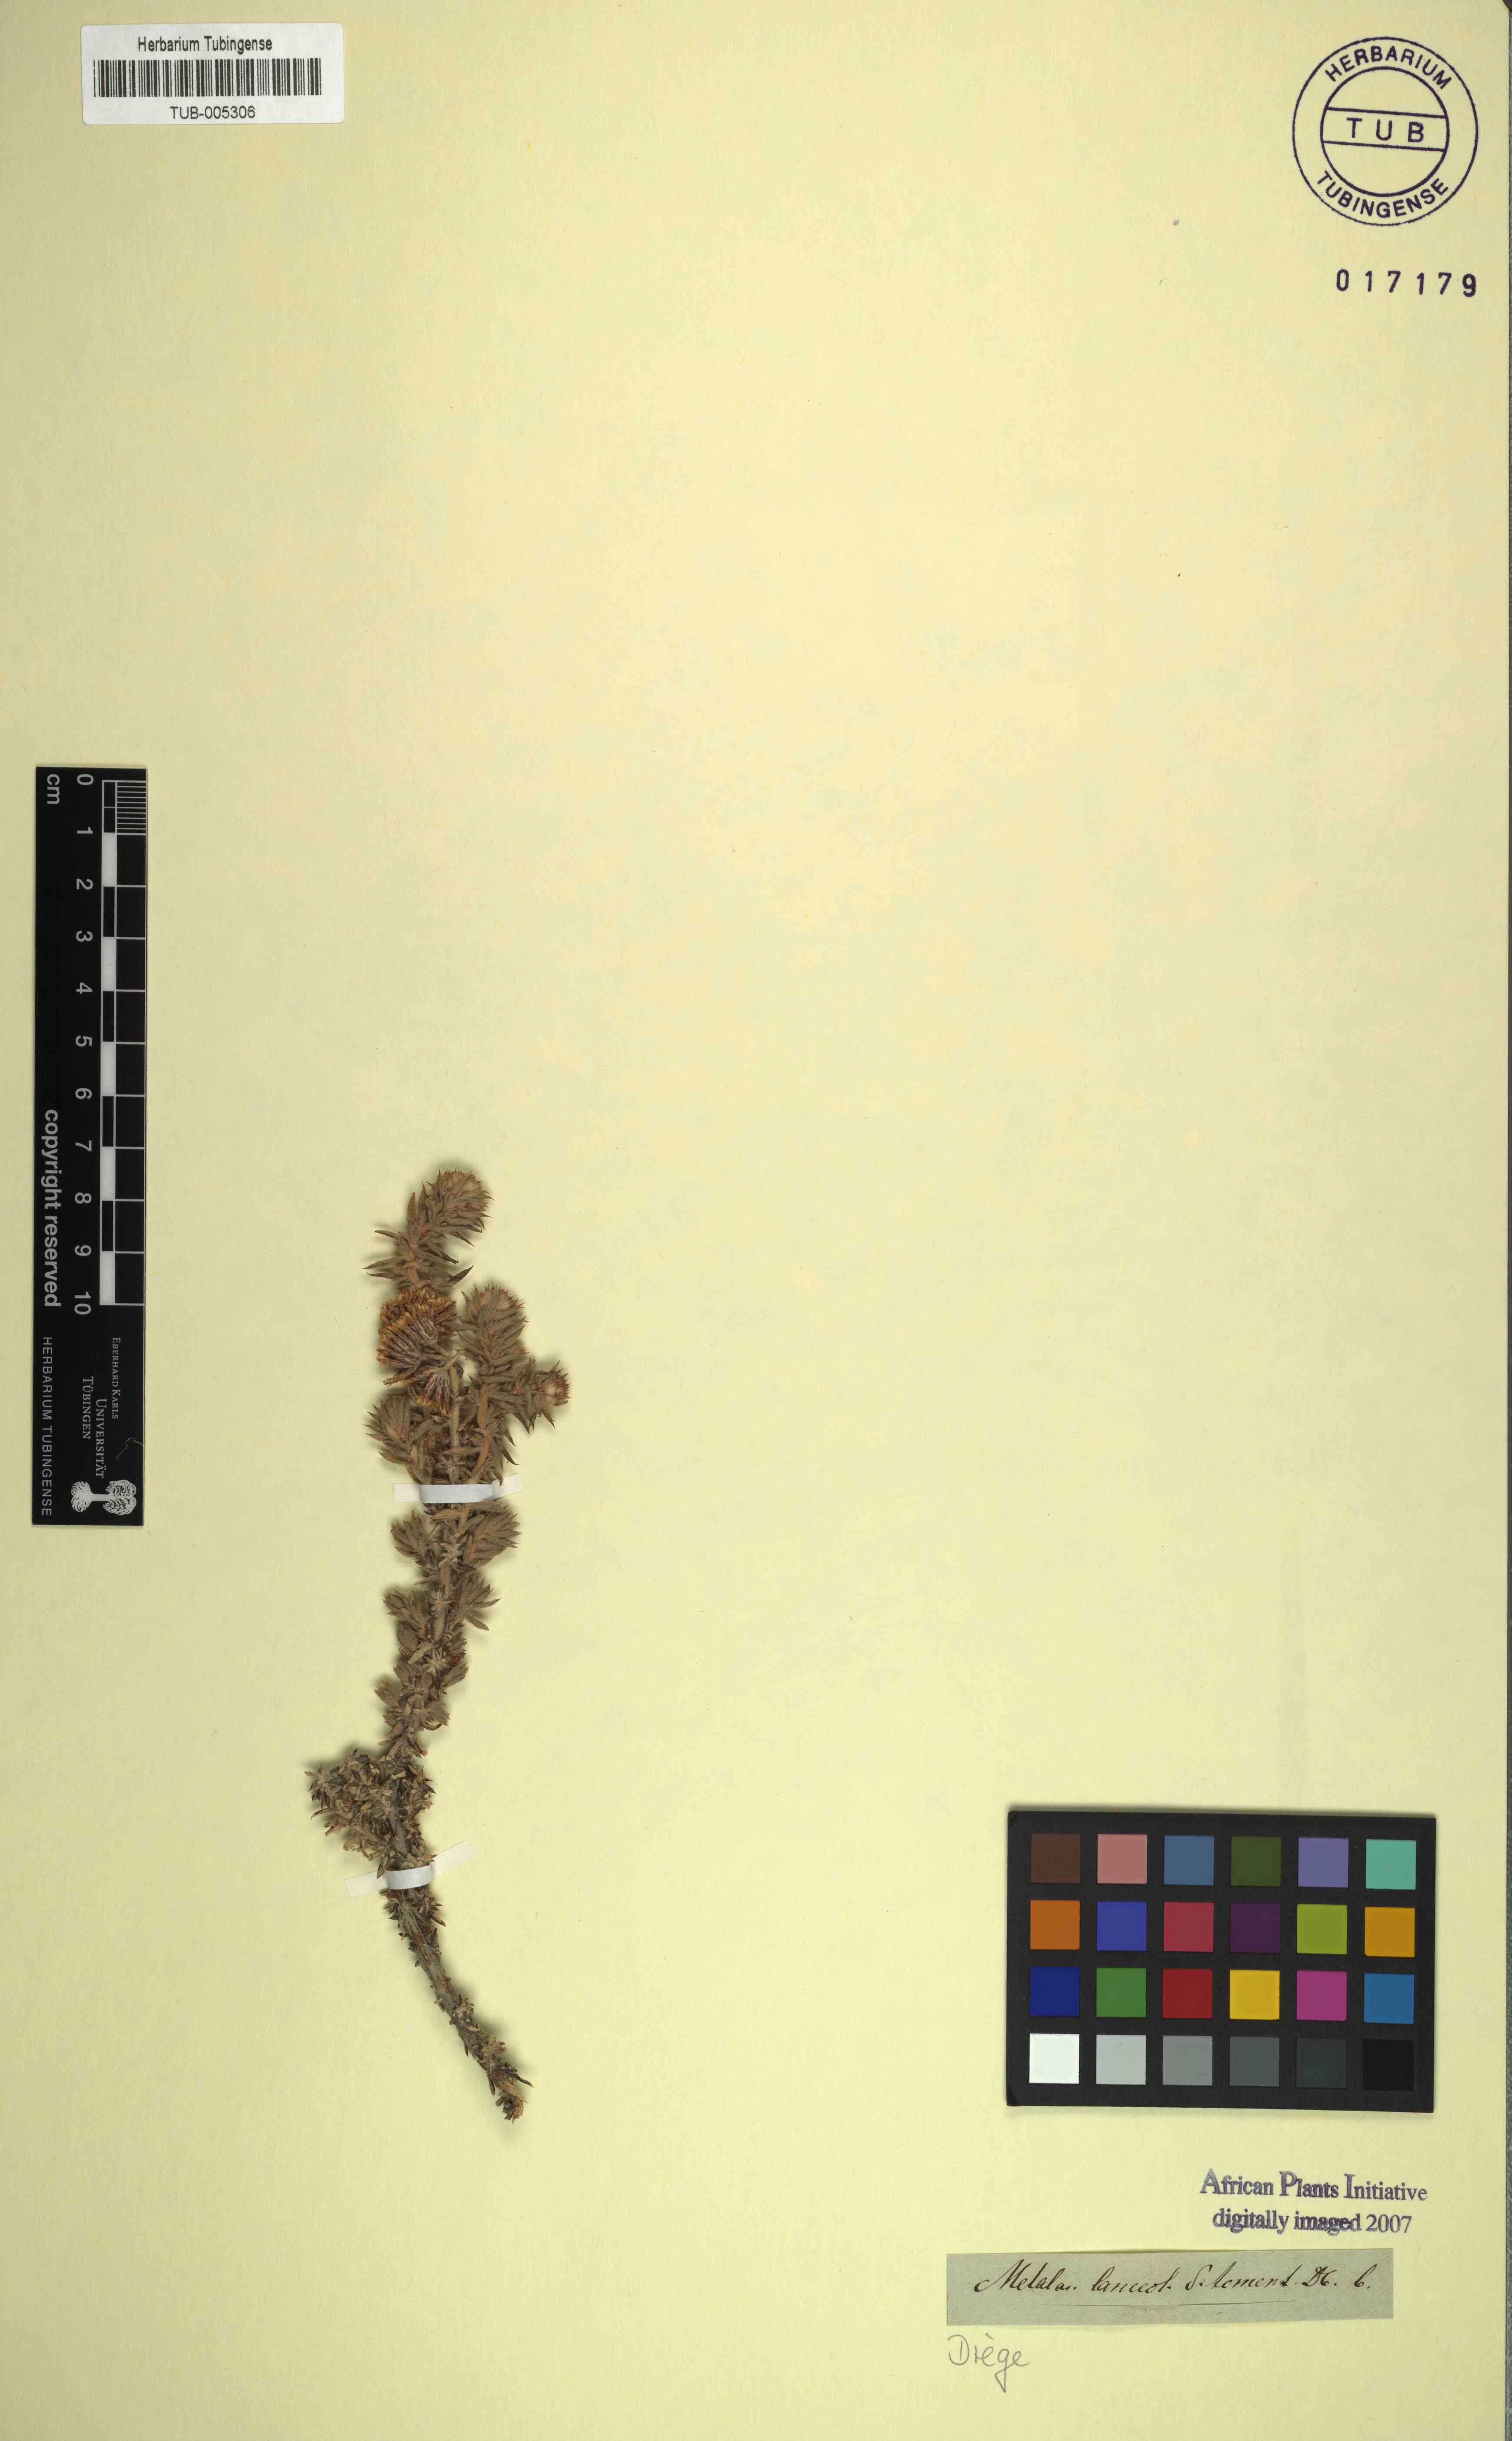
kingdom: Plantae
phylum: Tracheophyta
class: Magnoliopsida
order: Asterales
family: Asteraceae
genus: Metalasia
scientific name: Metalasia pulcherrima
